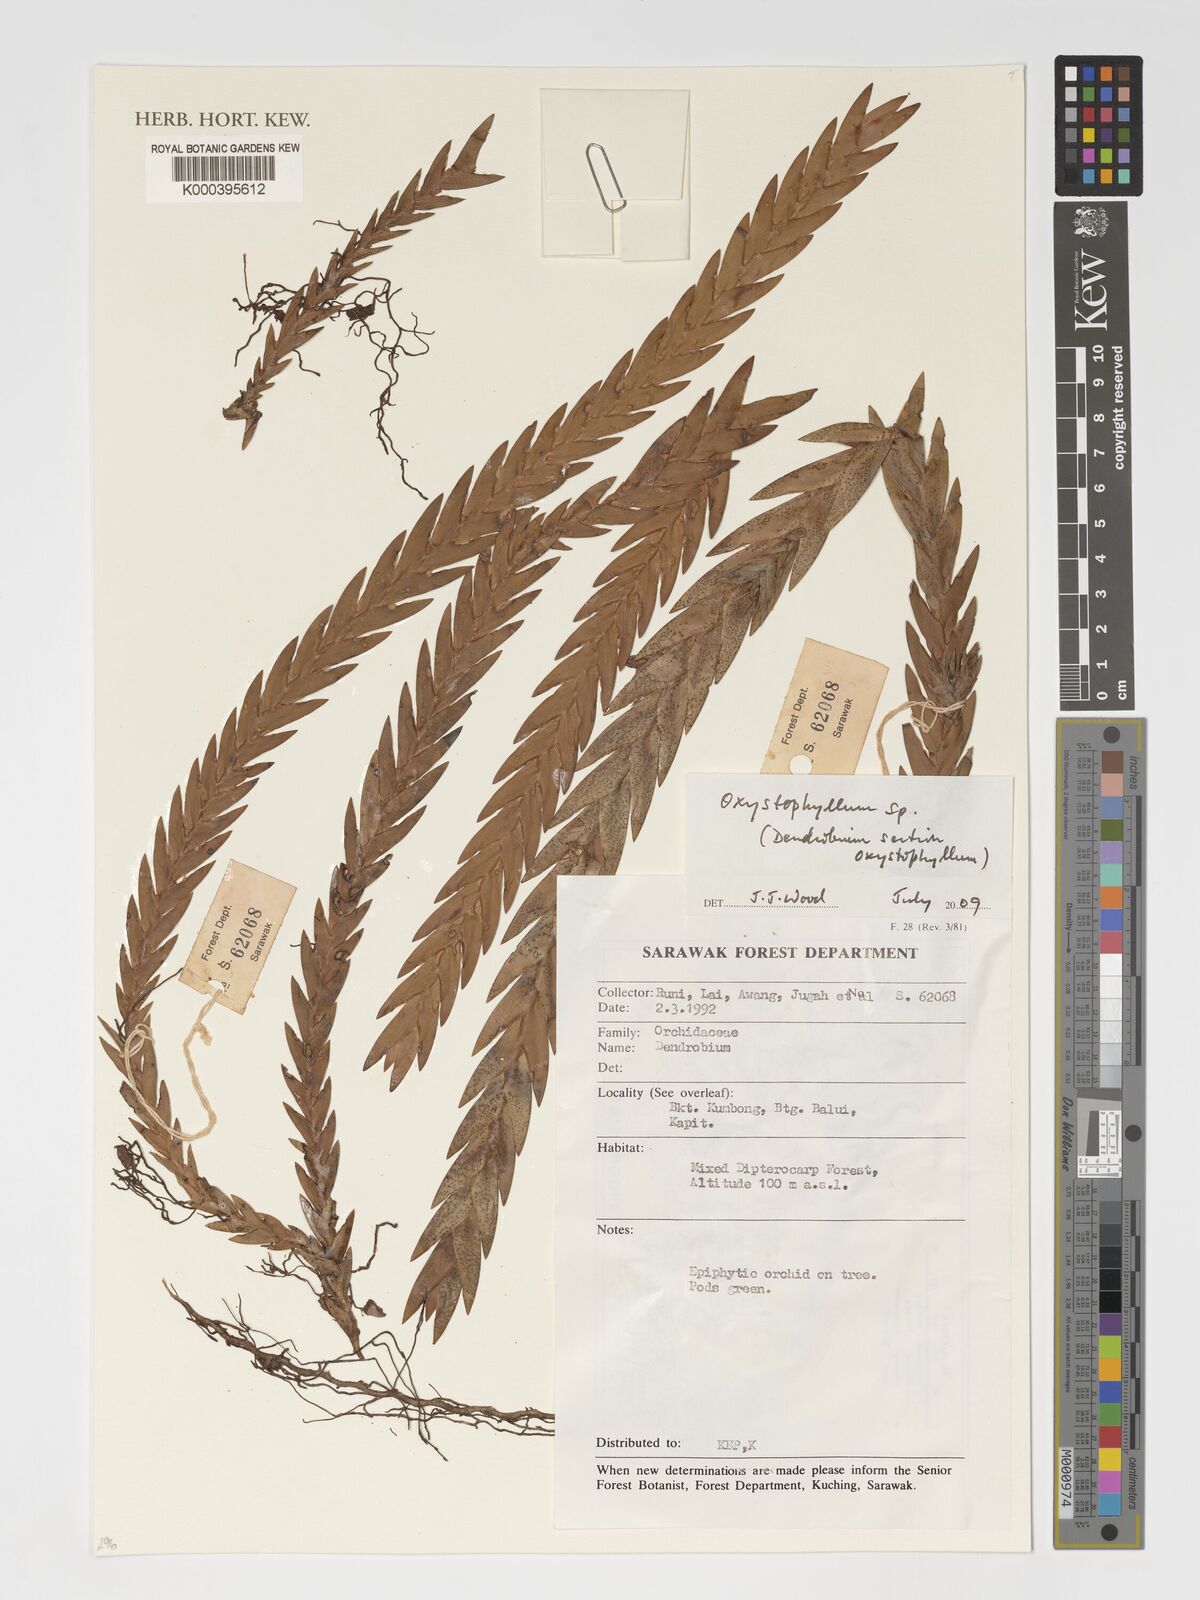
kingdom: Plantae
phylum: Tracheophyta
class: Liliopsida
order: Asparagales
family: Orchidaceae
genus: Dendrobium
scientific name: Dendrobium
